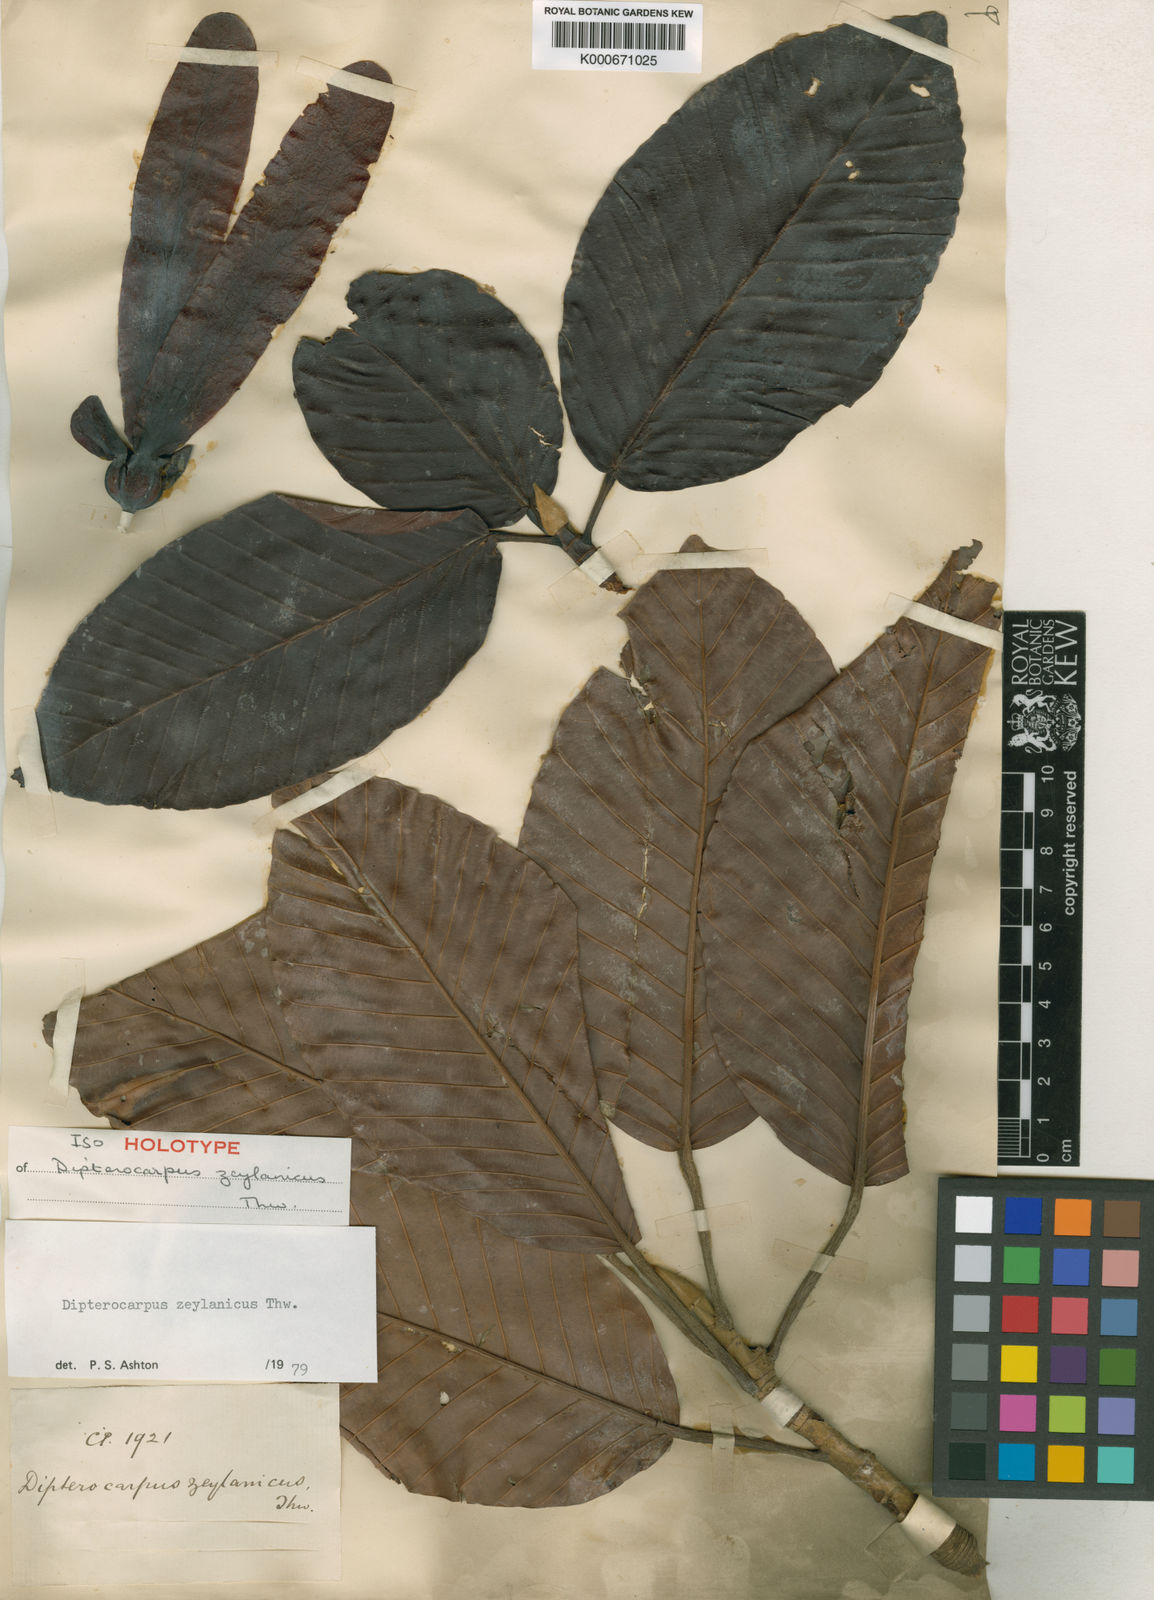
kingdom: Plantae
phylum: Tracheophyta
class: Magnoliopsida
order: Malvales
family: Dipterocarpaceae
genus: Dipterocarpus
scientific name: Dipterocarpus zeylanicus
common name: Hora
